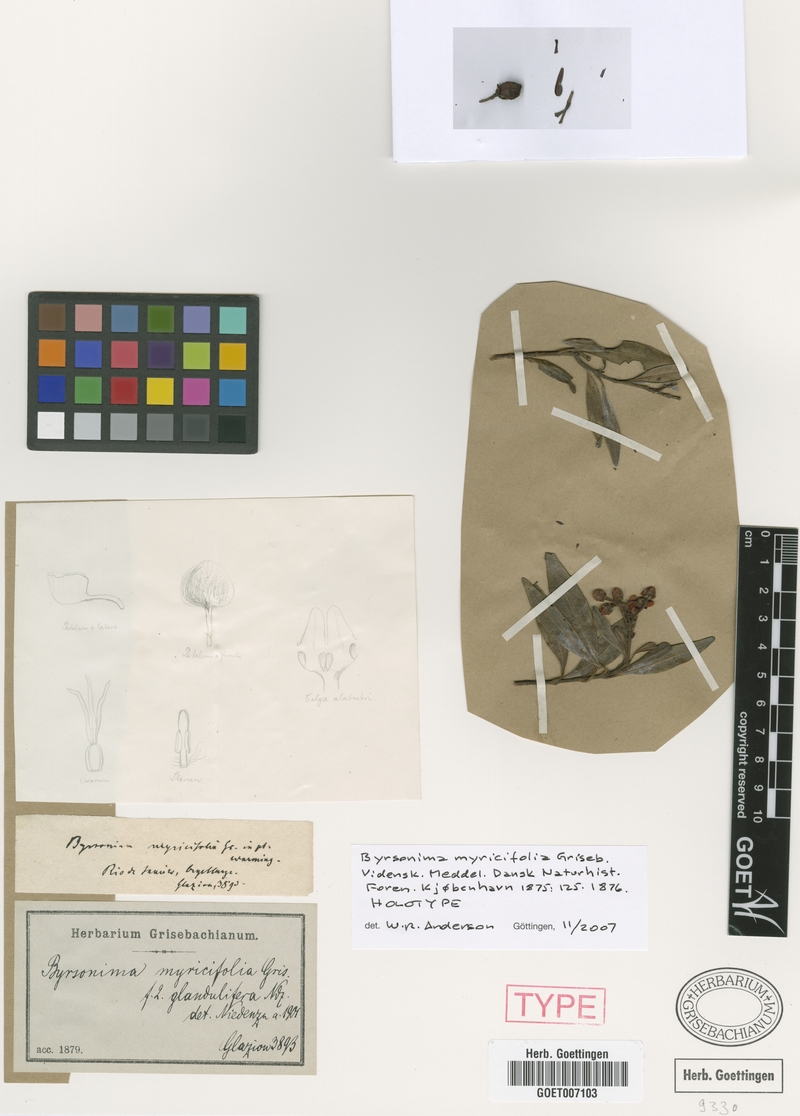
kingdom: Plantae
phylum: Tracheophyta
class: Magnoliopsida
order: Malpighiales
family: Malpighiaceae
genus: Byrsonima
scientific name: Byrsonima myricifolia
